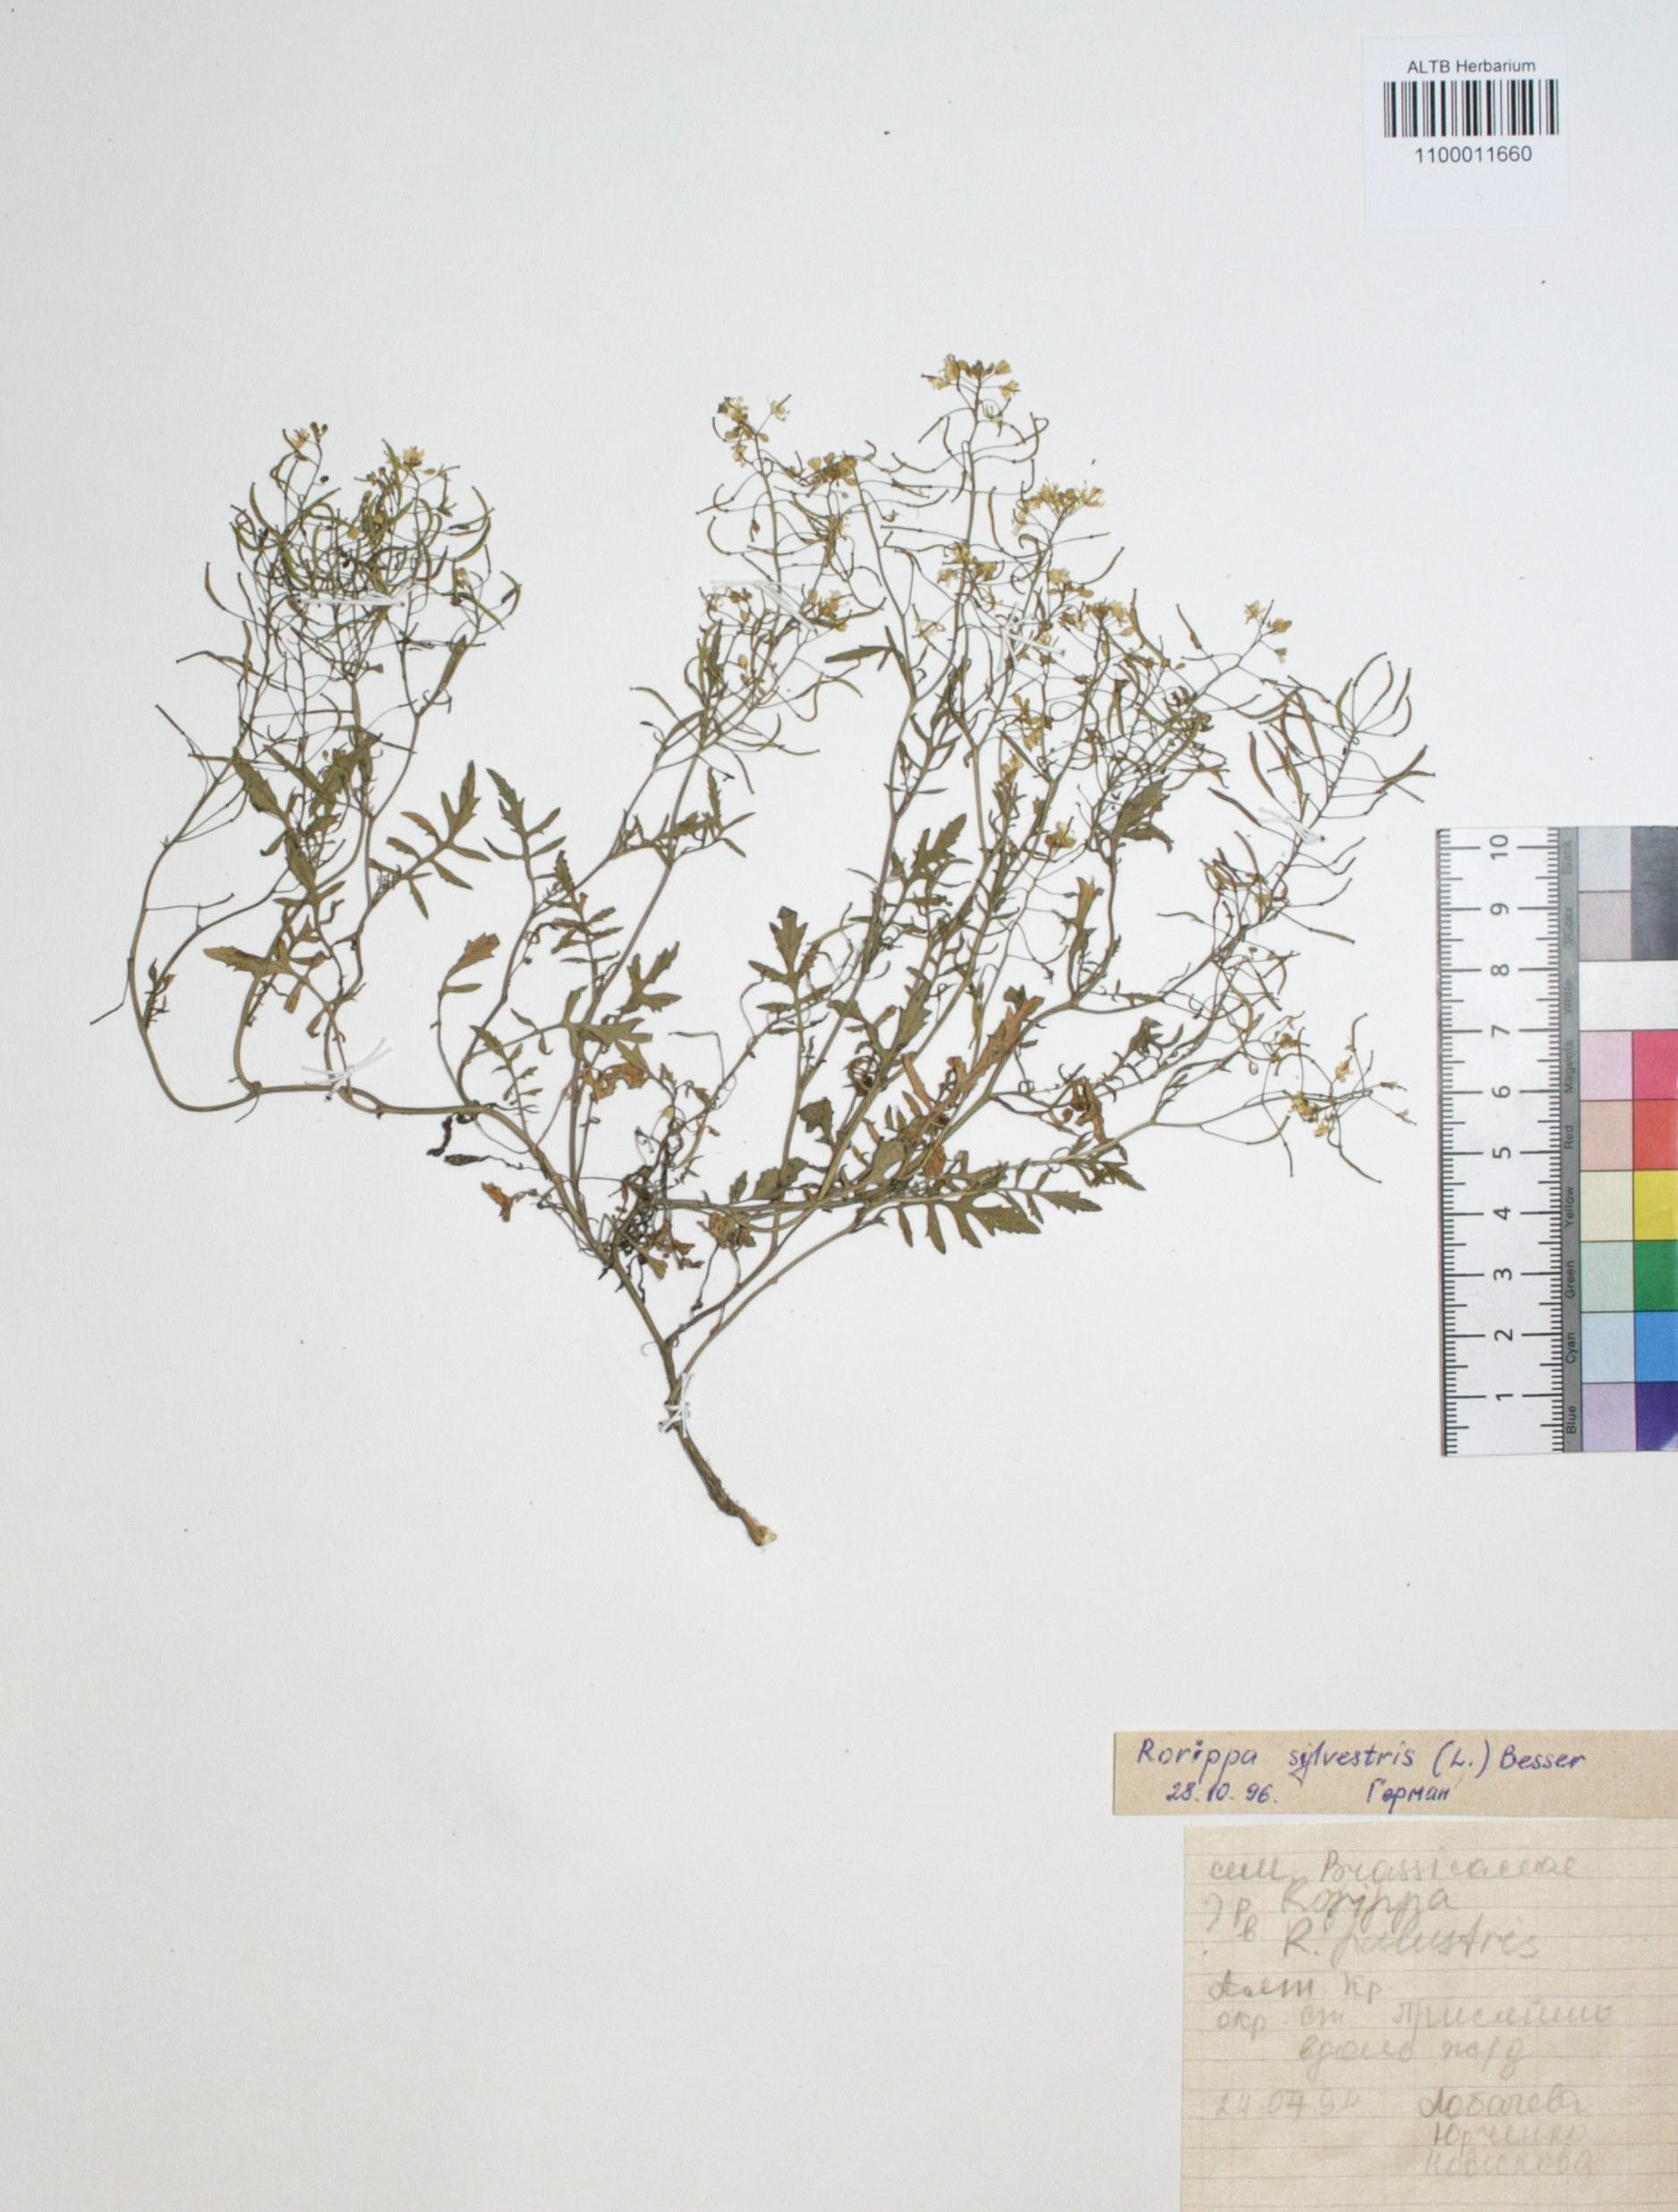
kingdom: Plantae
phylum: Tracheophyta
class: Magnoliopsida
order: Brassicales
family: Brassicaceae
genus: Rorippa
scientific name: Rorippa sylvestris
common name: Creeping yellowcress
